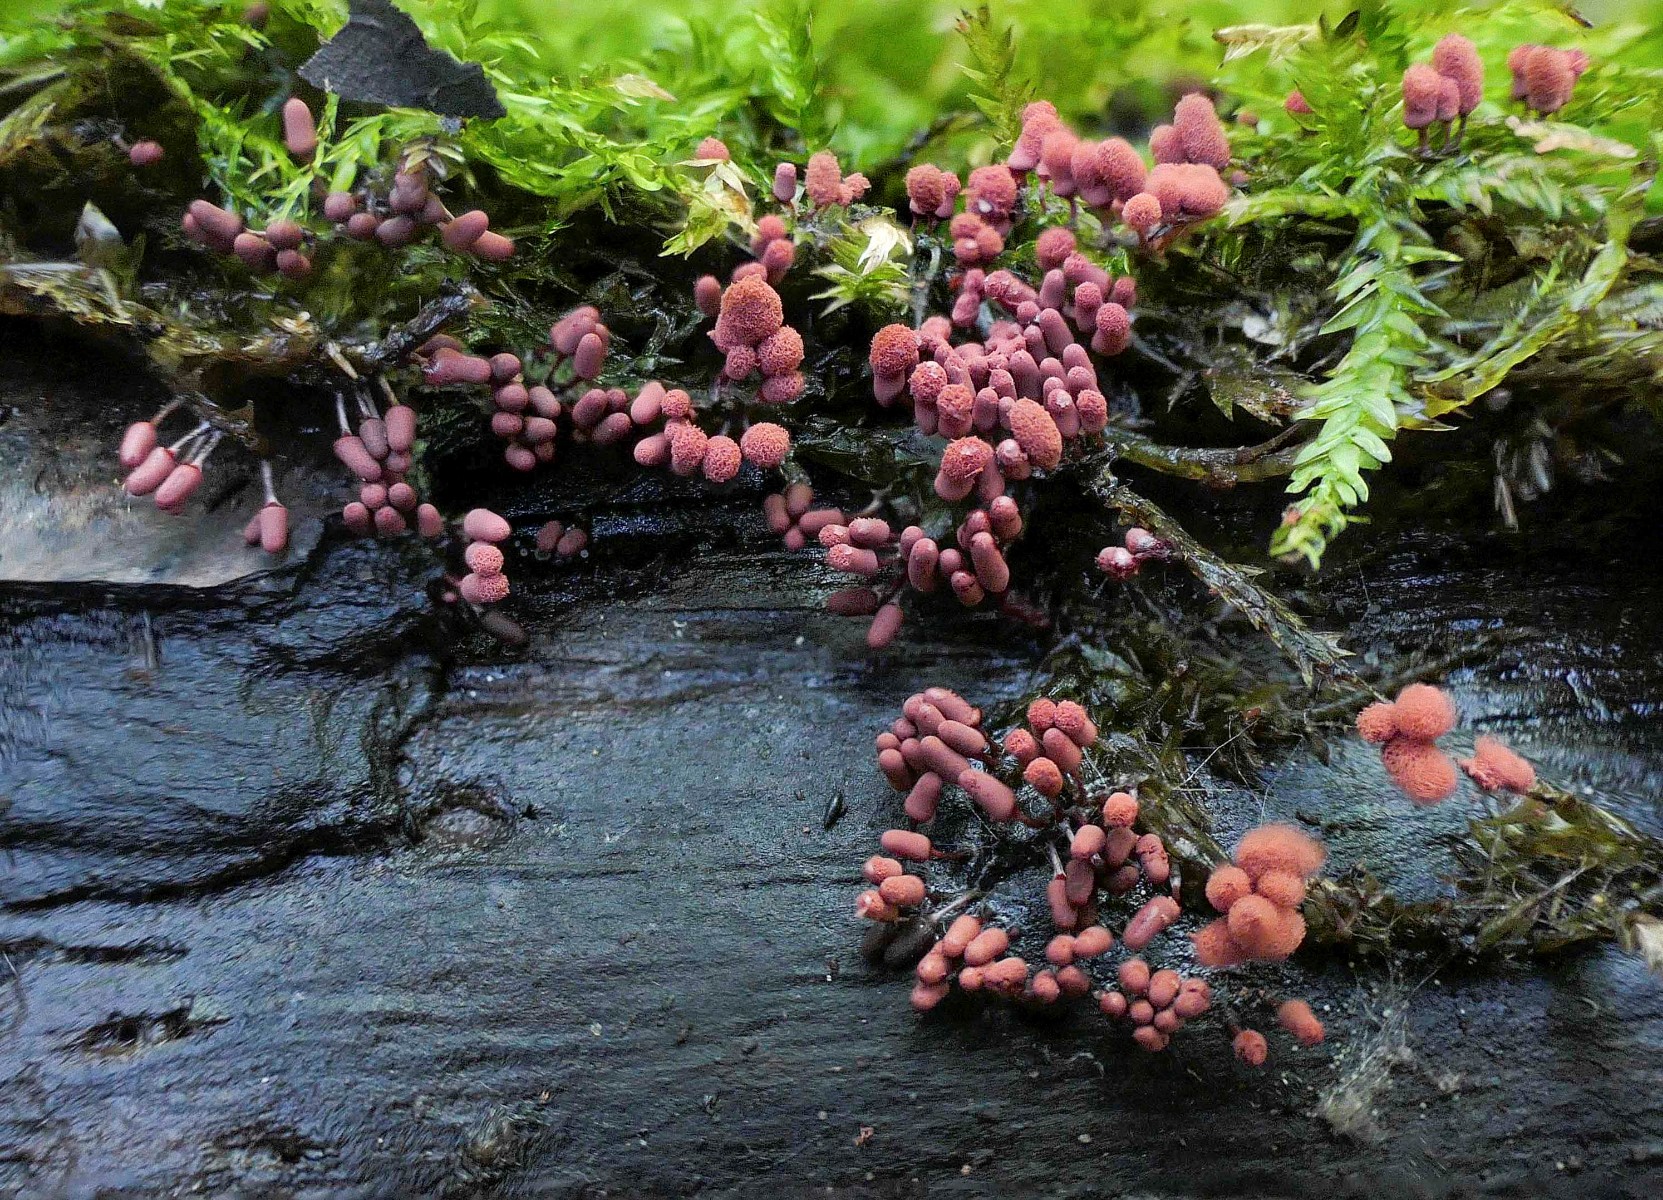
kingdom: Protozoa
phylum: Mycetozoa
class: Myxomycetes
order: Trichiales
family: Arcyriaceae
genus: Arcyria
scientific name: Arcyria denudata
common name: karminrød skålsvøb
